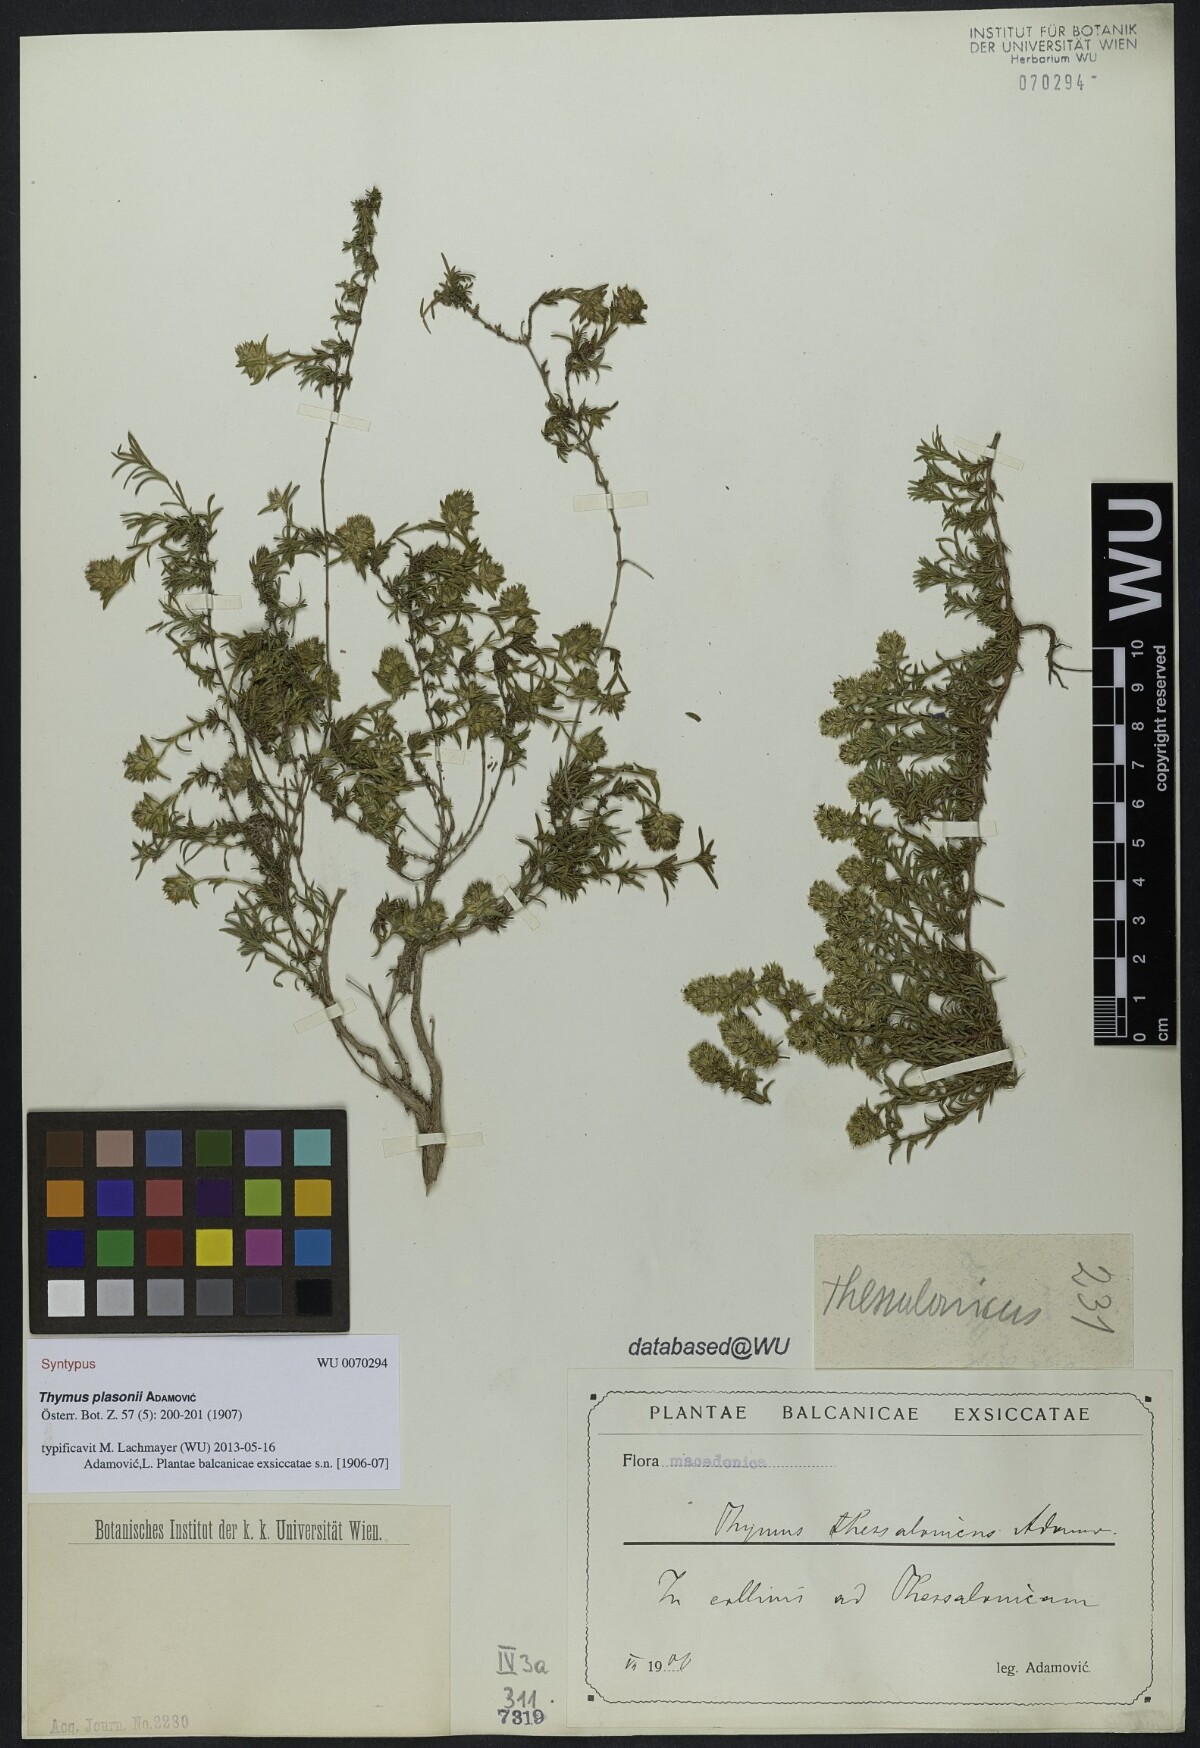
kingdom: Plantae
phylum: Tracheophyta
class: Magnoliopsida
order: Lamiales
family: Lamiaceae
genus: Thymus
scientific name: Thymus plasonii
